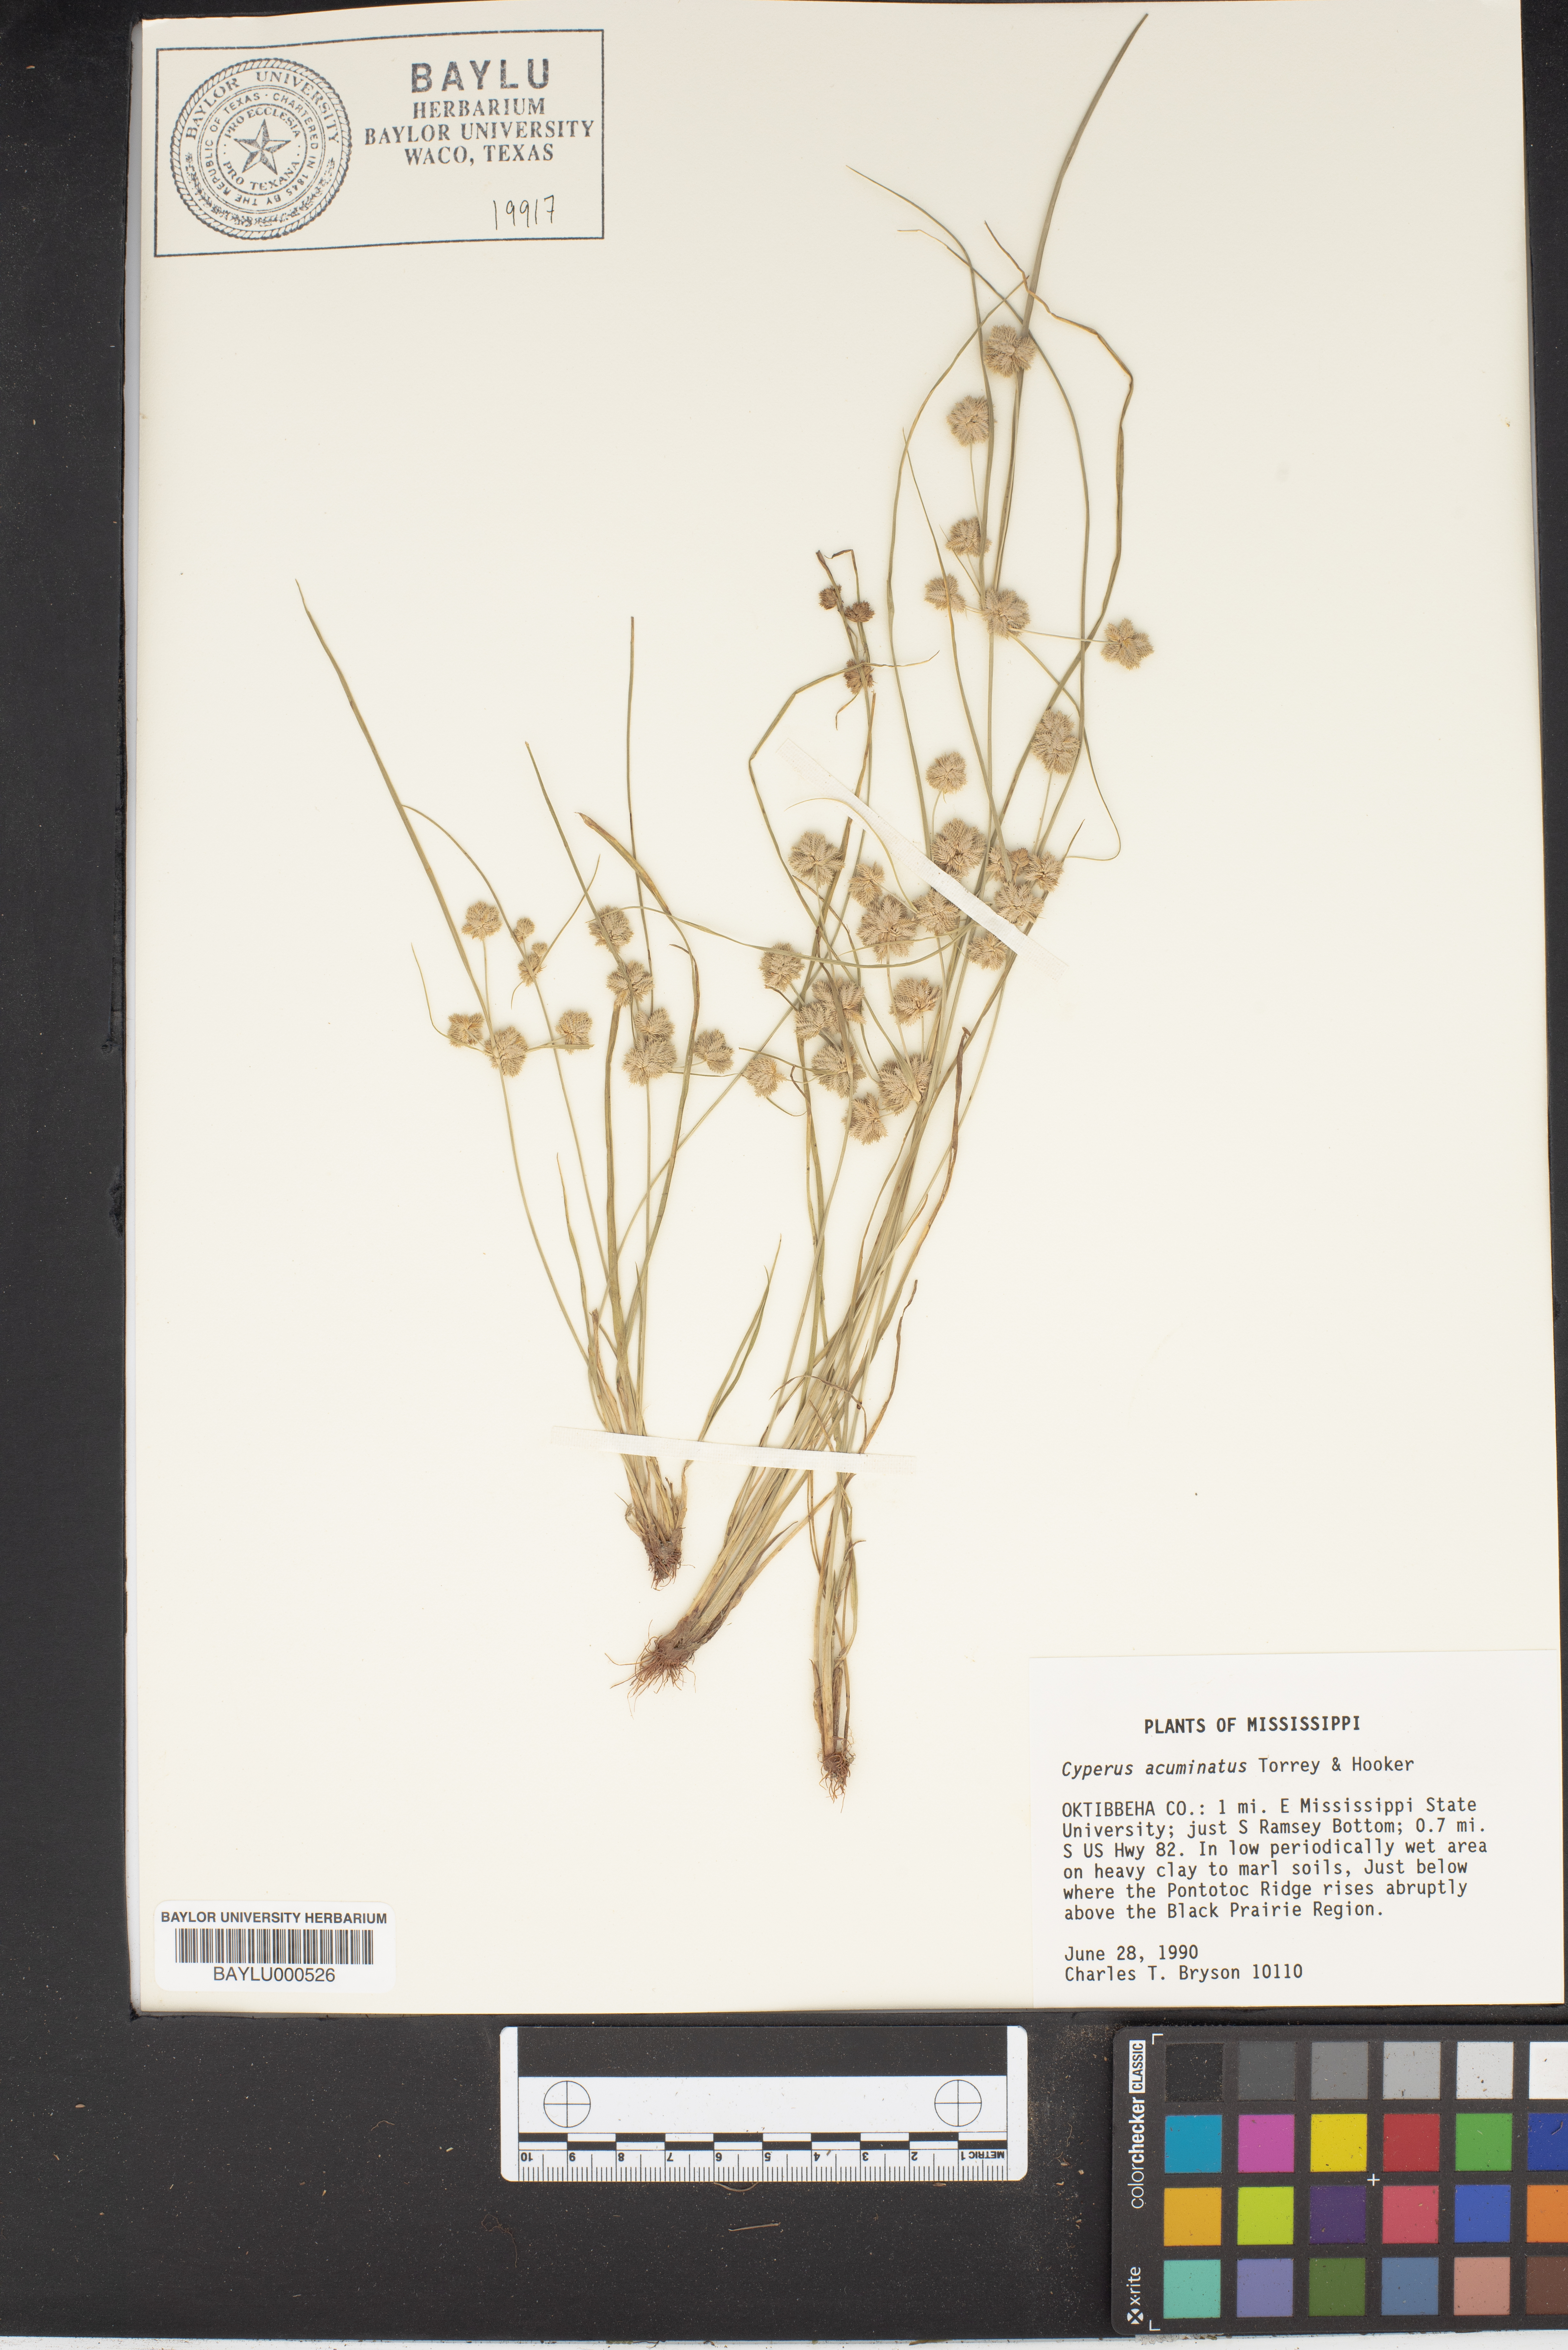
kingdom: Plantae
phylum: Tracheophyta
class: Liliopsida
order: Poales
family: Cyperaceae
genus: Cyperus
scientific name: Cyperus acuminatus
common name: Short-pointed cyperus
